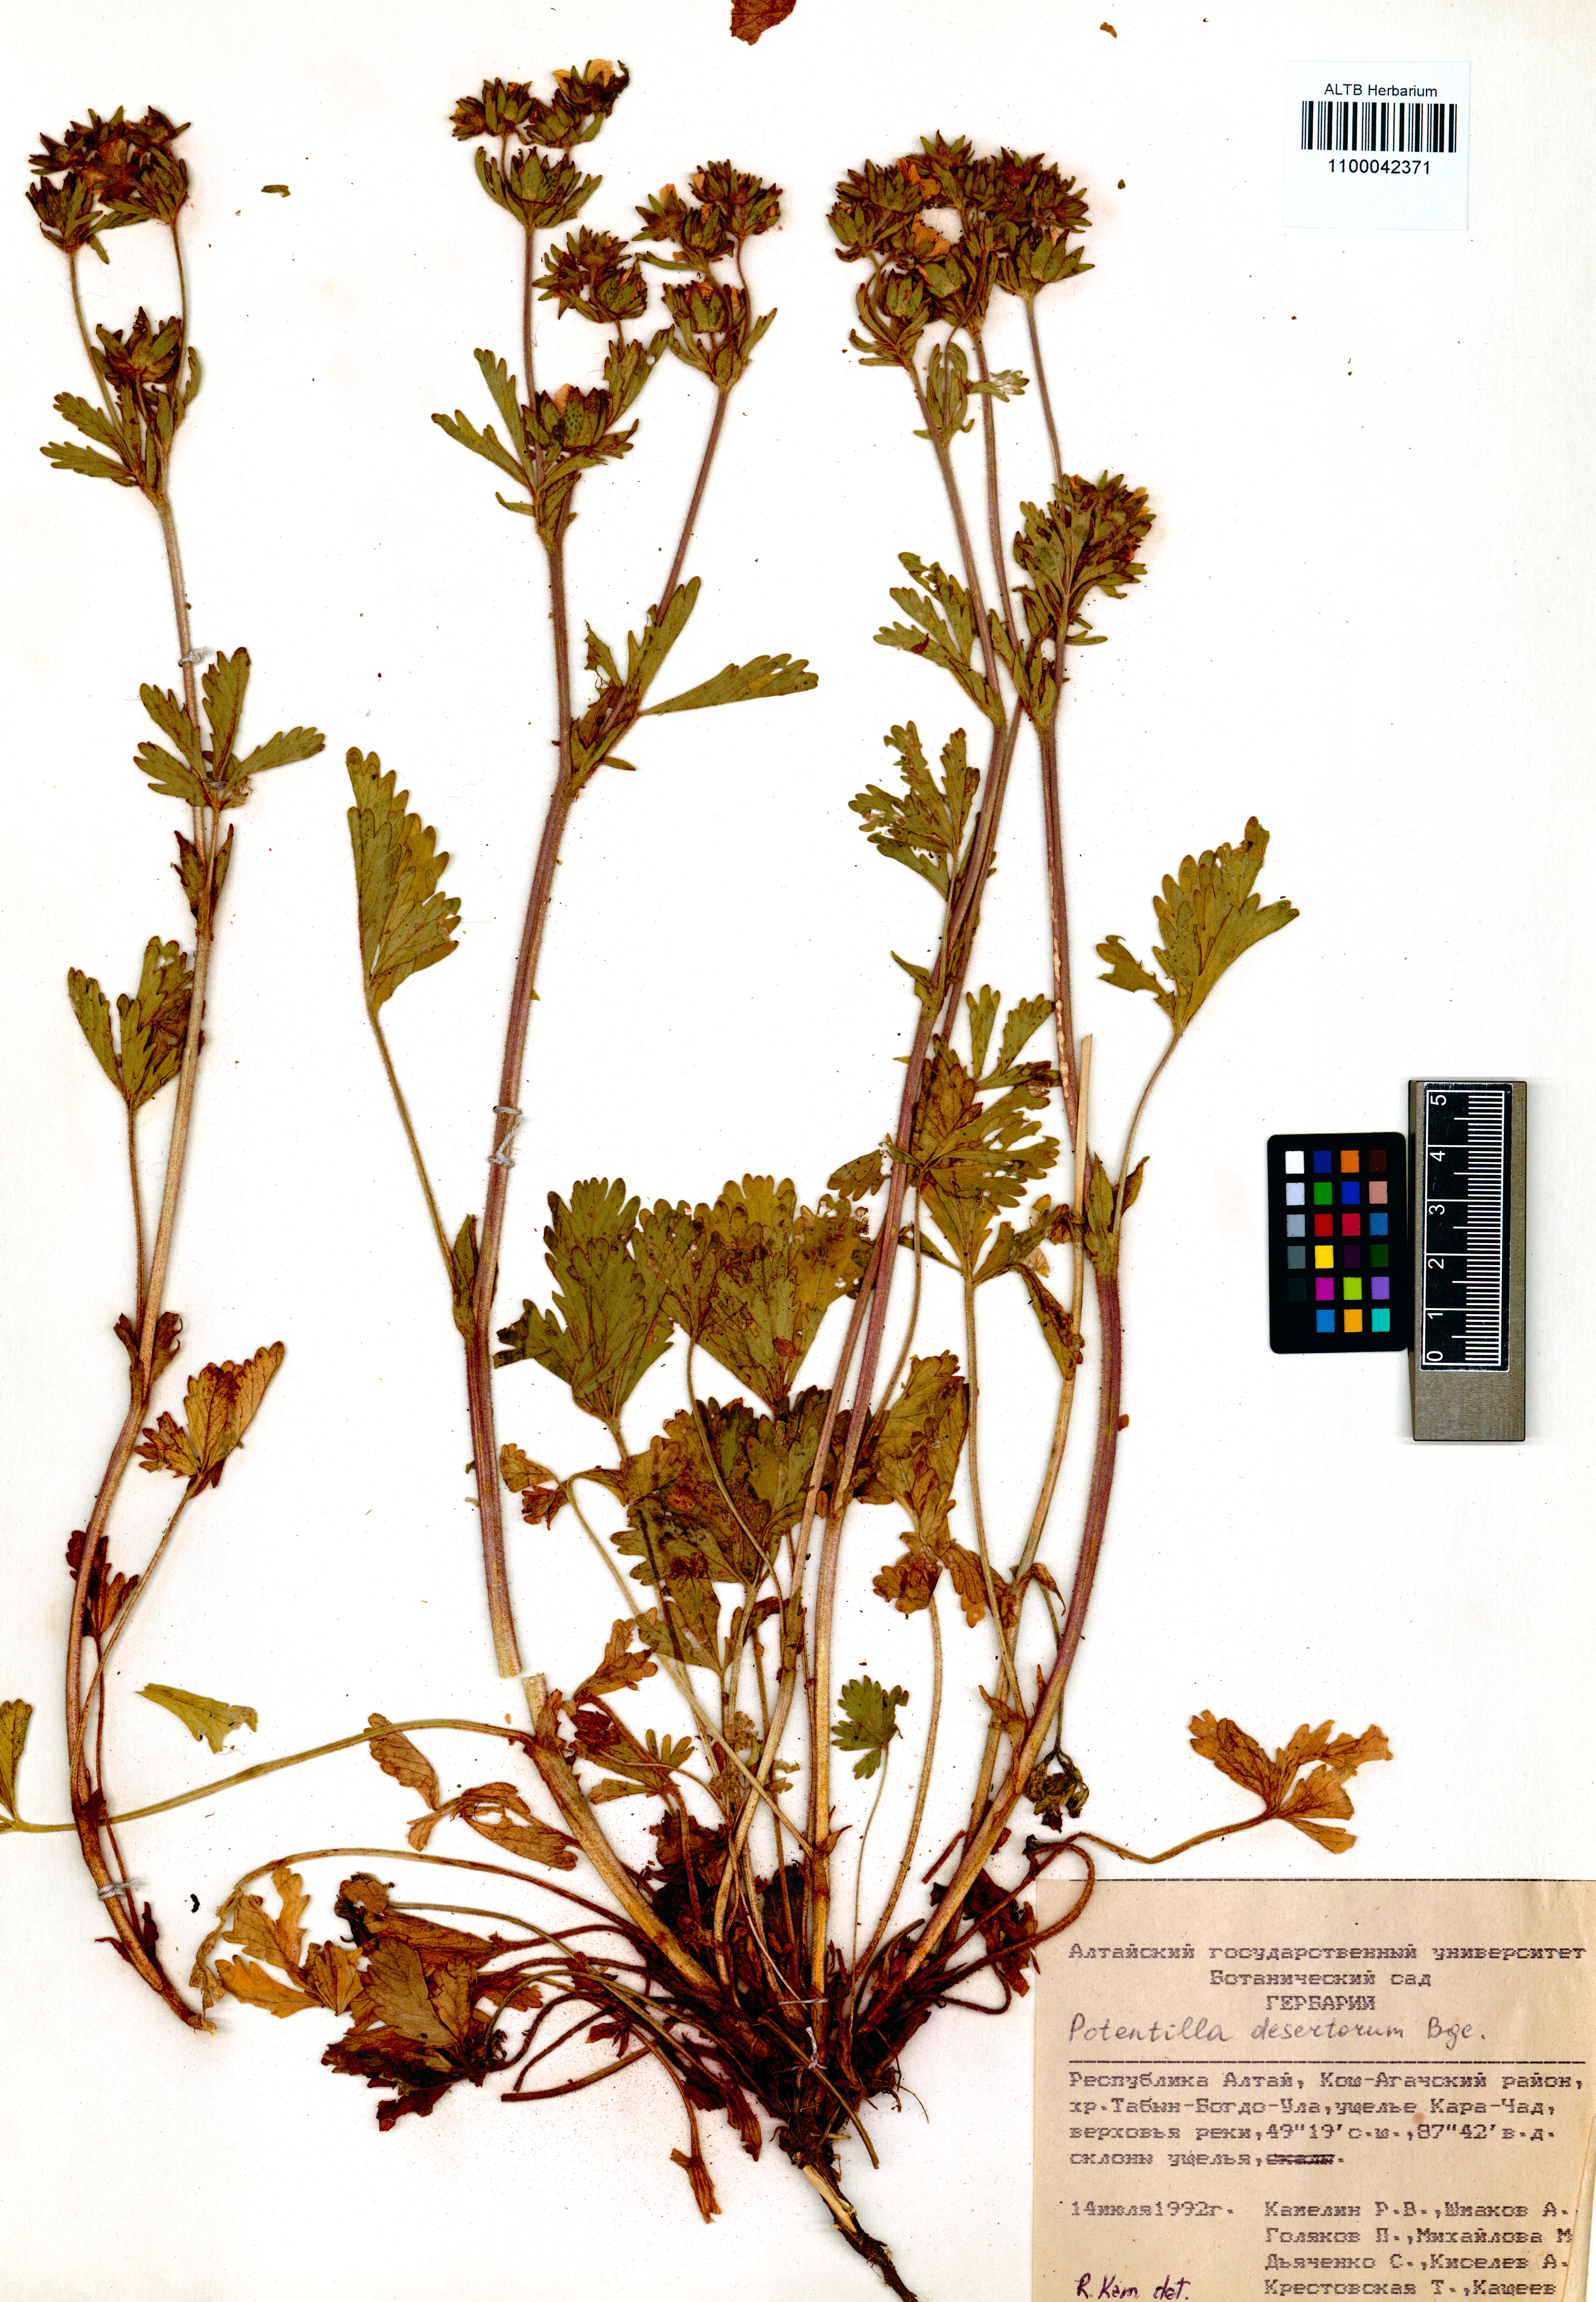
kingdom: Plantae
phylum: Tracheophyta
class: Magnoliopsida
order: Rosales
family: Rosaceae
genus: Potentilla
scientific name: Potentilla desertorum
